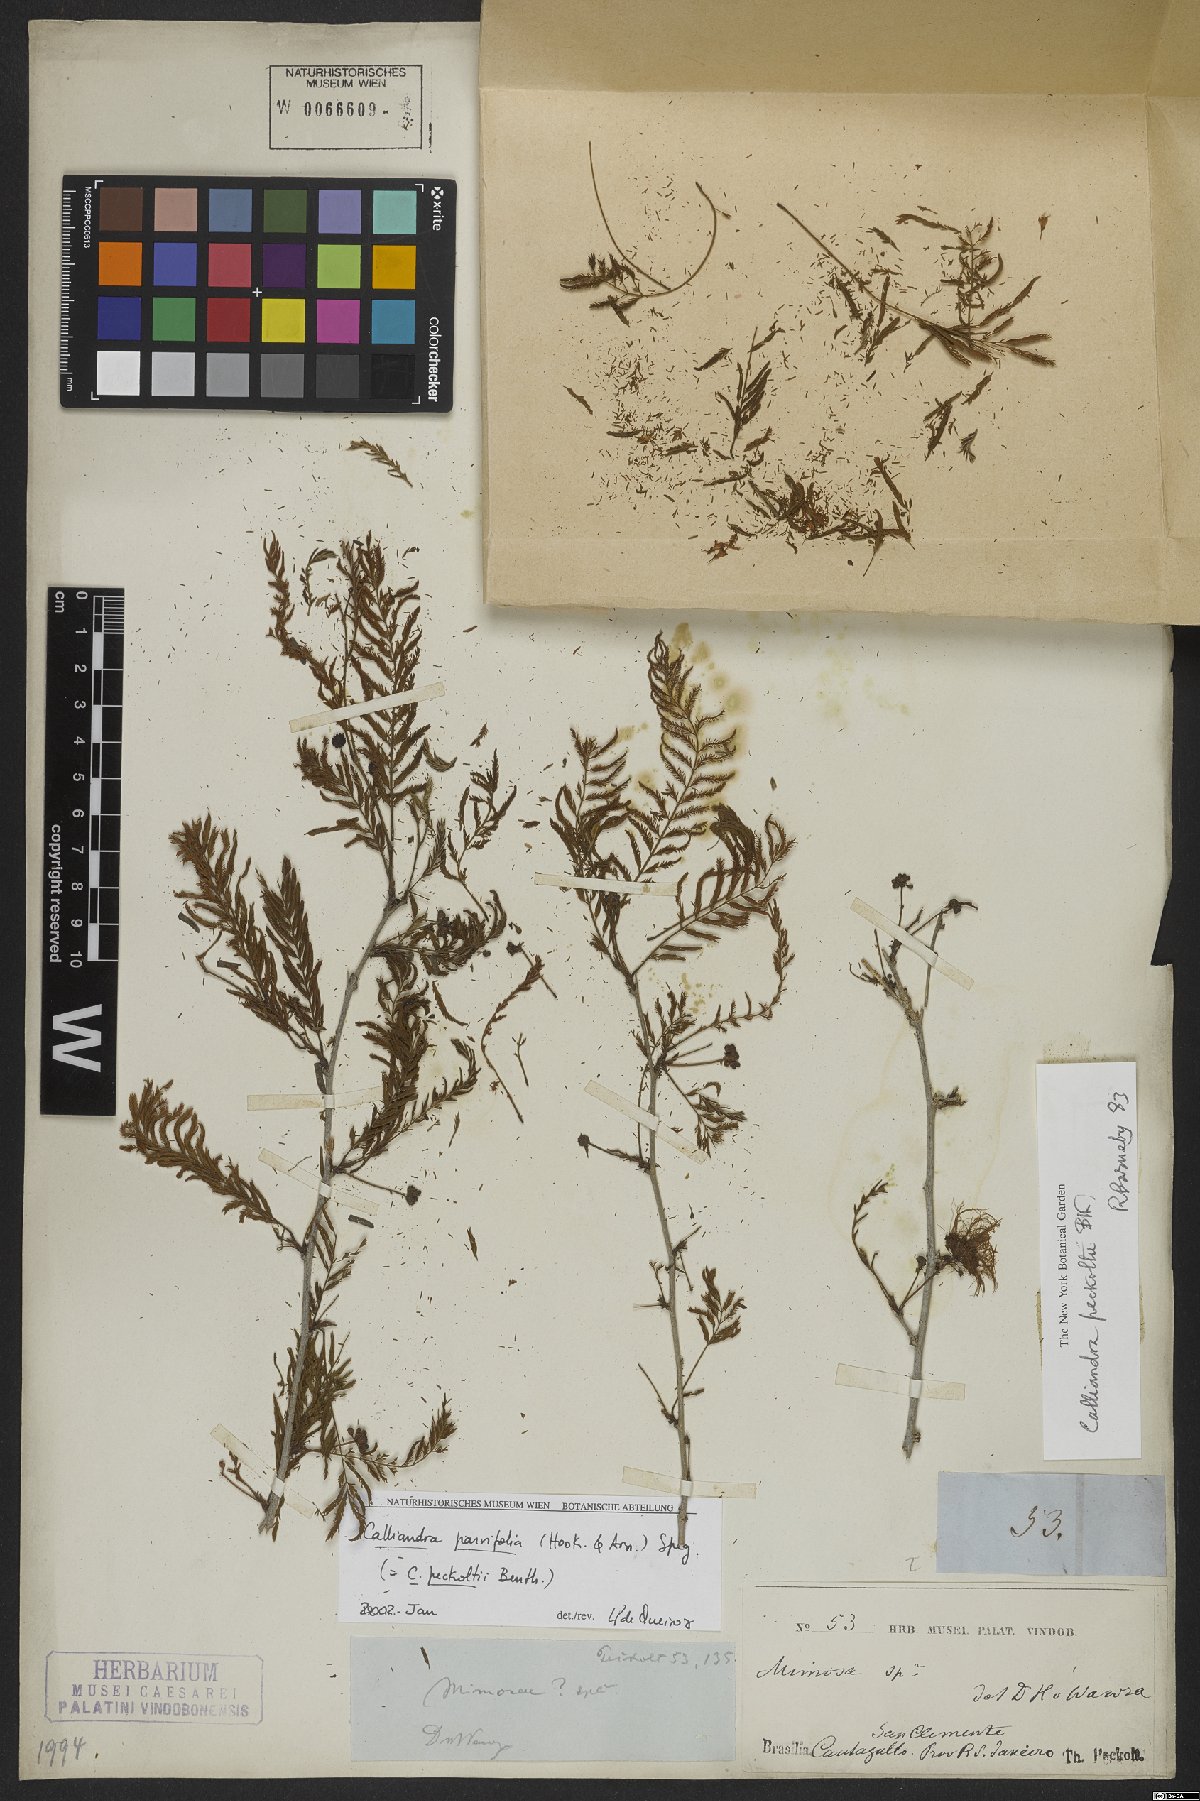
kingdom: Plantae
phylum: Tracheophyta
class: Magnoliopsida
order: Fabales
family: Fabaceae
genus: Calliandra
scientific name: Calliandra parviflora
